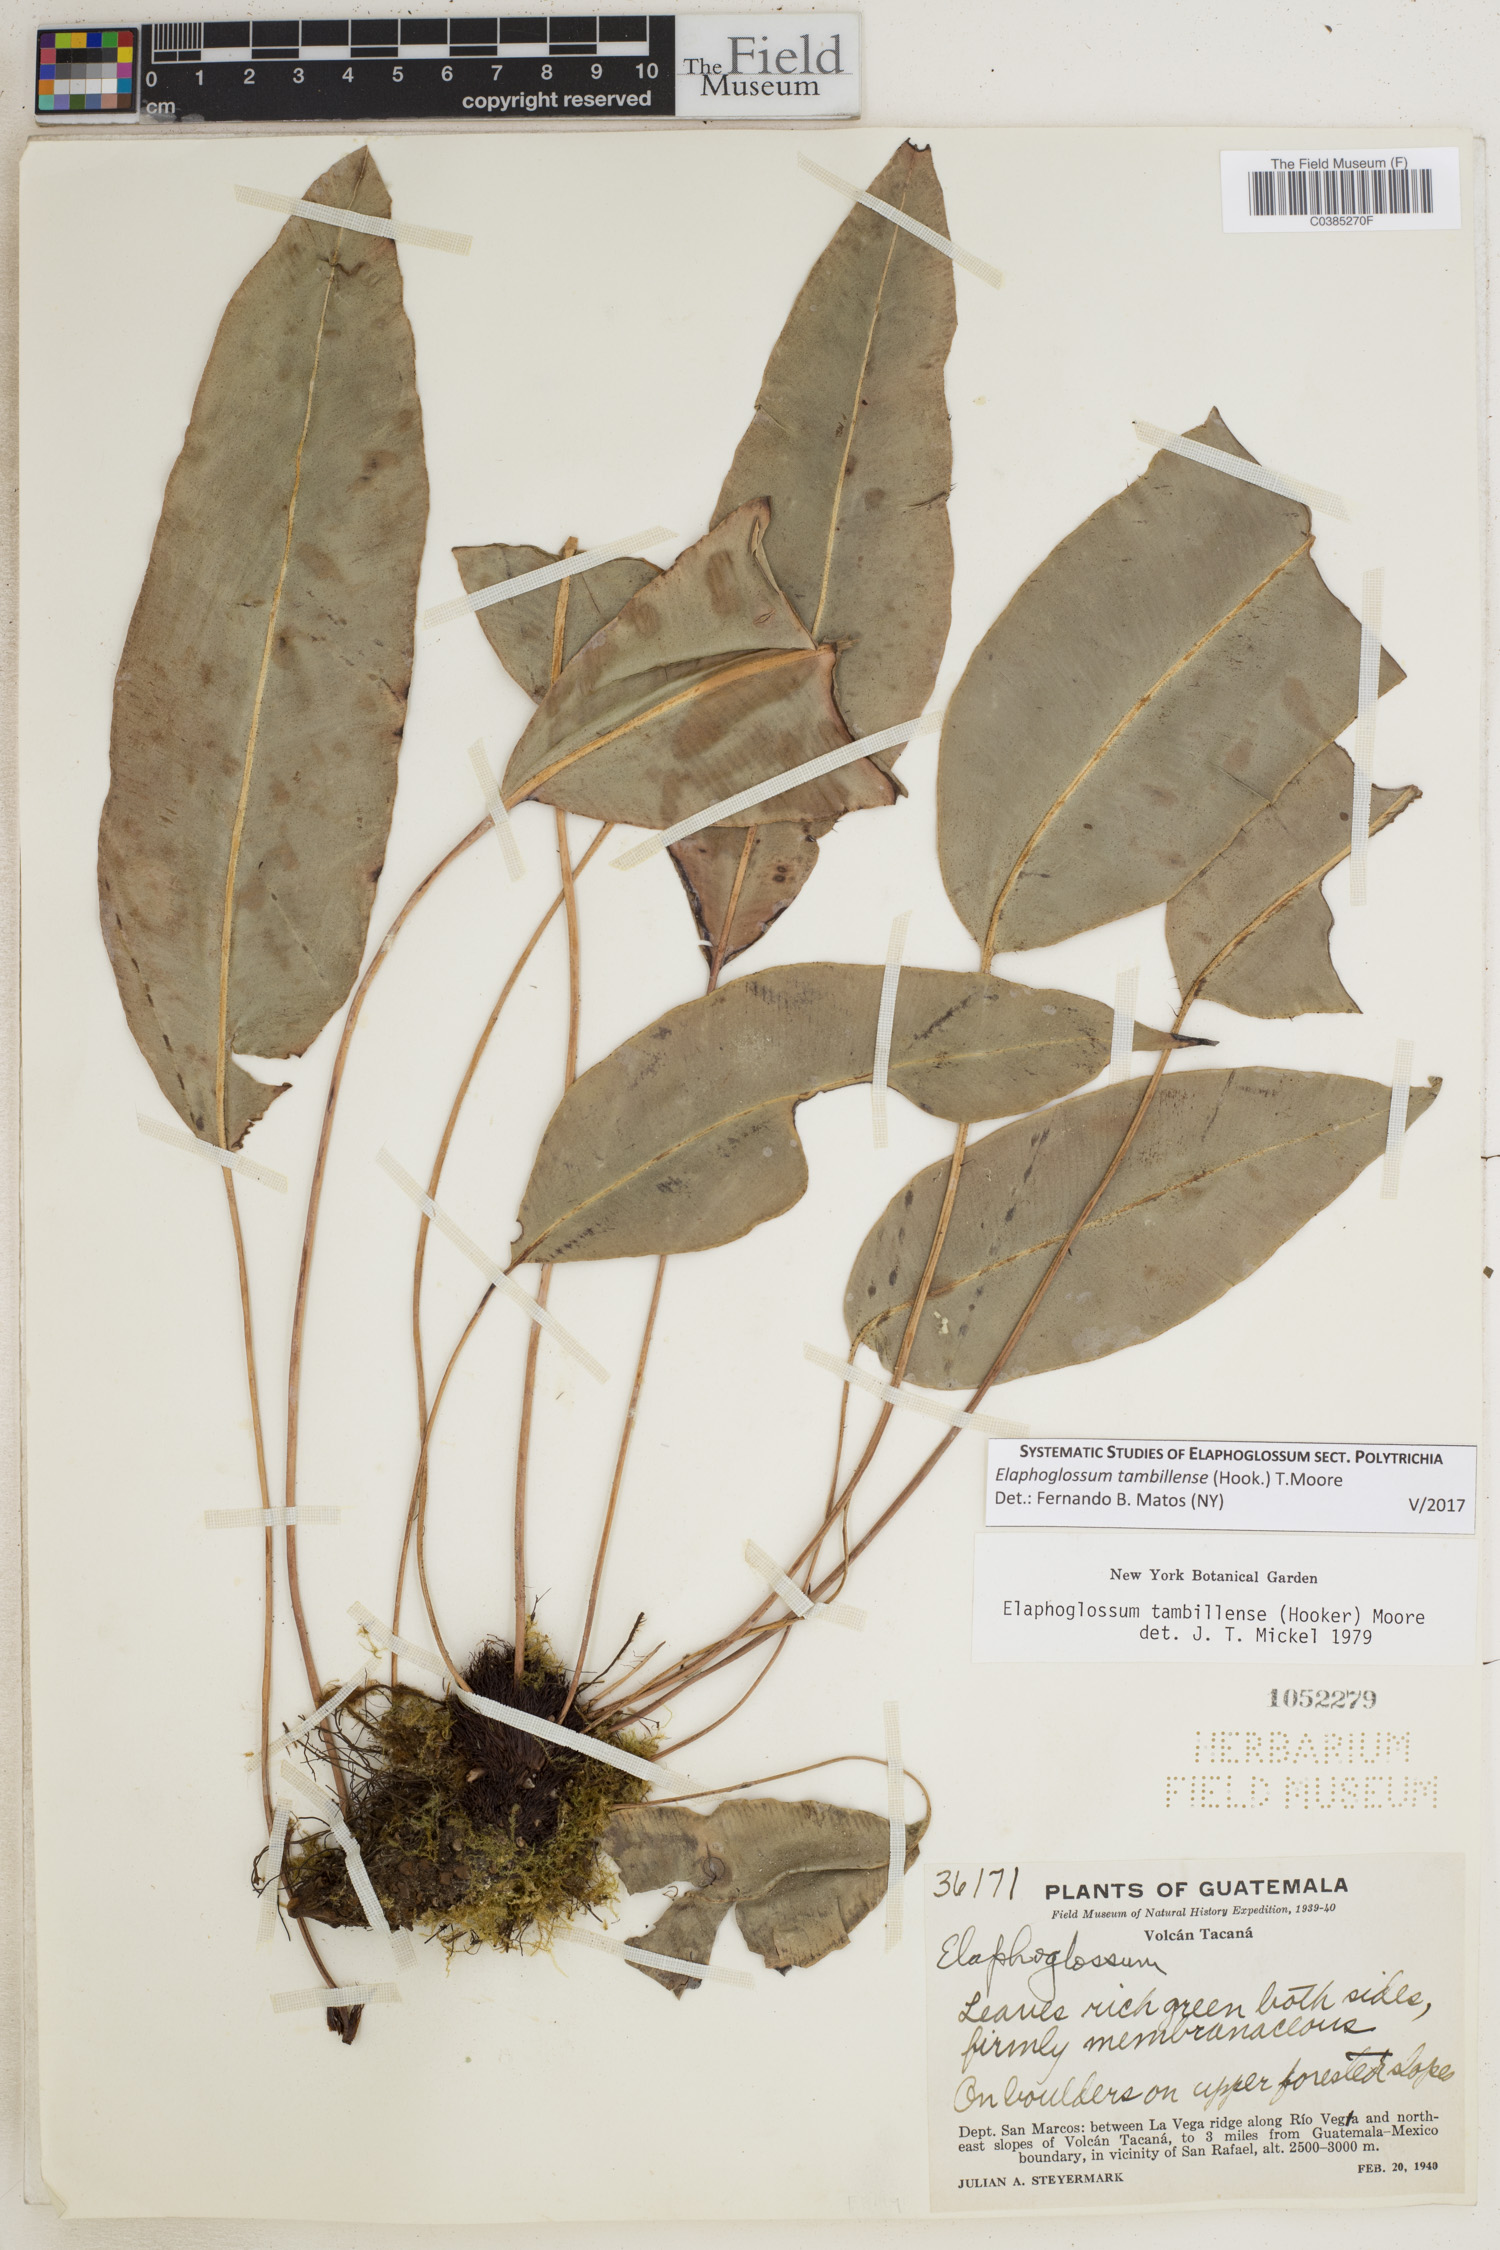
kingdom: Plantae
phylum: Tracheophyta
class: Polypodiopsida
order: Polypodiales
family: Dryopteridaceae
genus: Elaphoglossum
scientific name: Elaphoglossum tambillense
